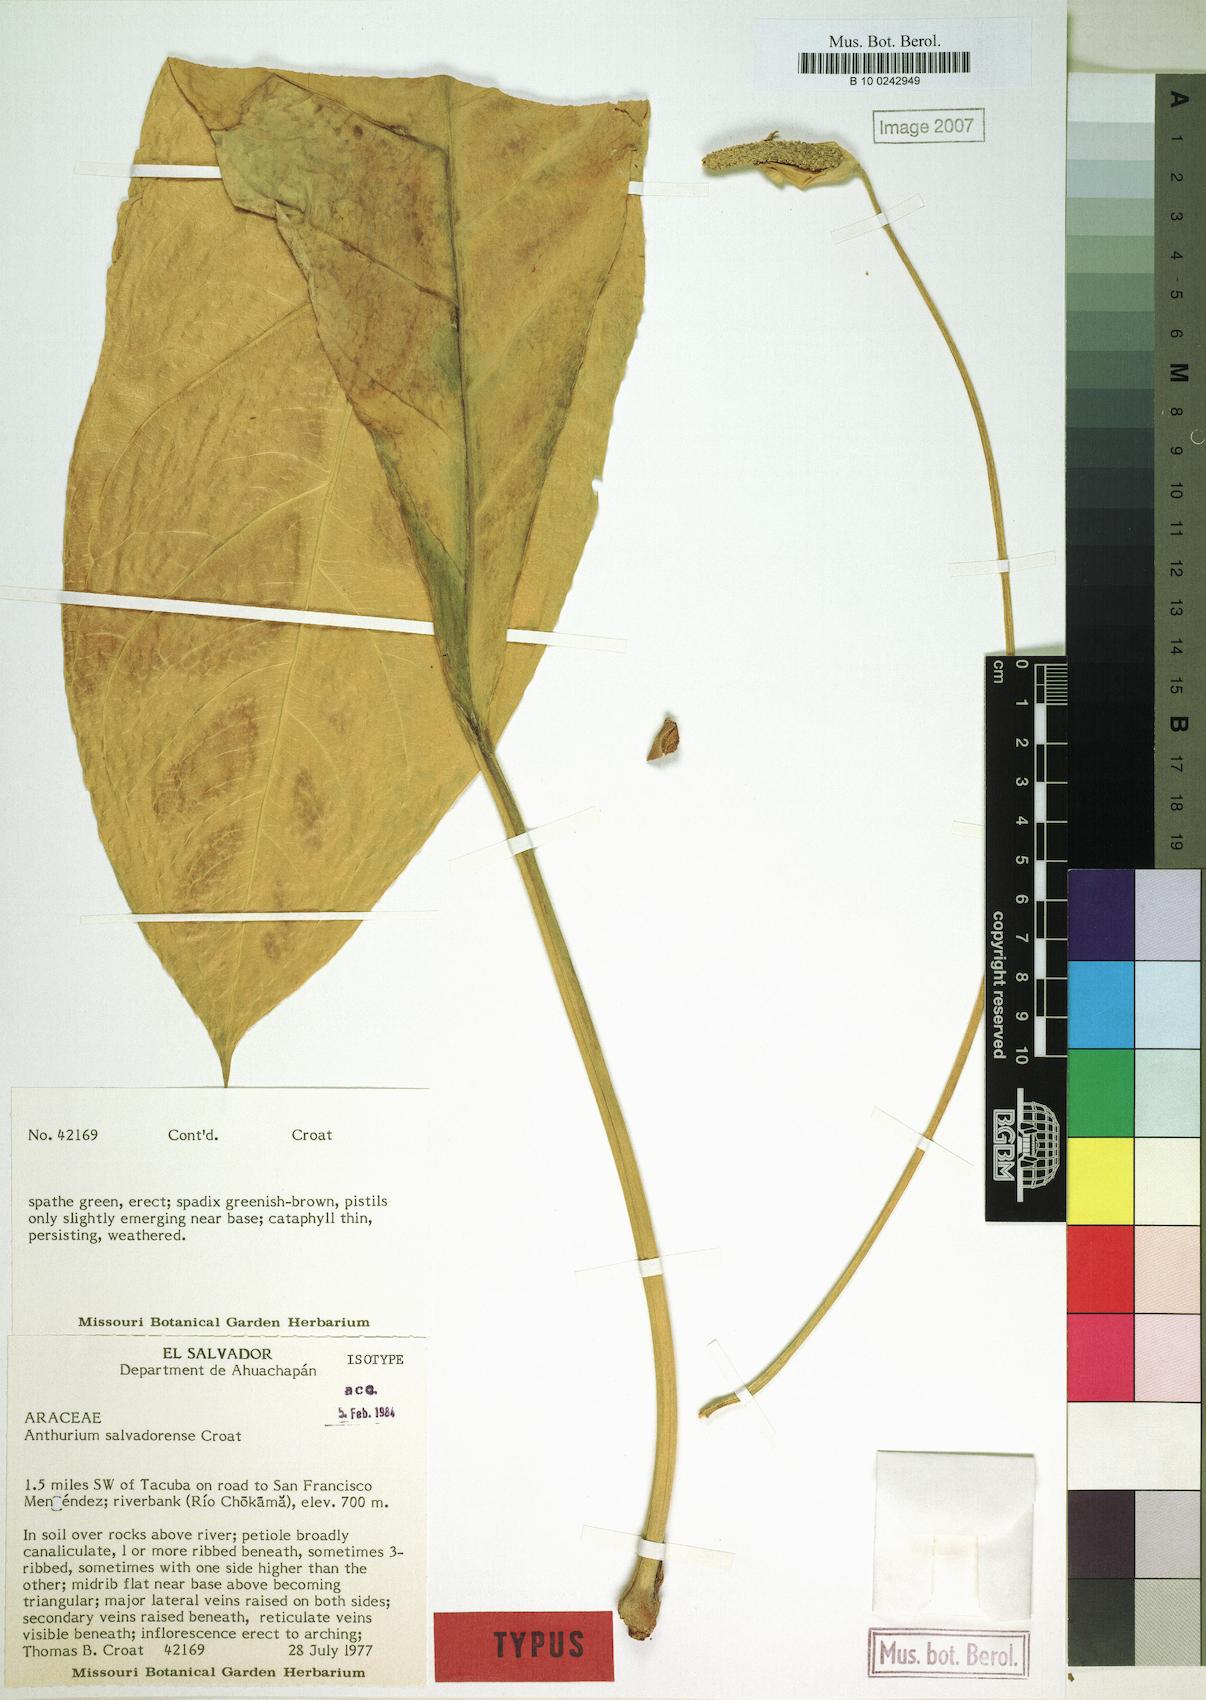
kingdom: Plantae
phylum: Tracheophyta
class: Liliopsida
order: Alismatales
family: Araceae
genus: Anthurium
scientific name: Anthurium salvadorense
